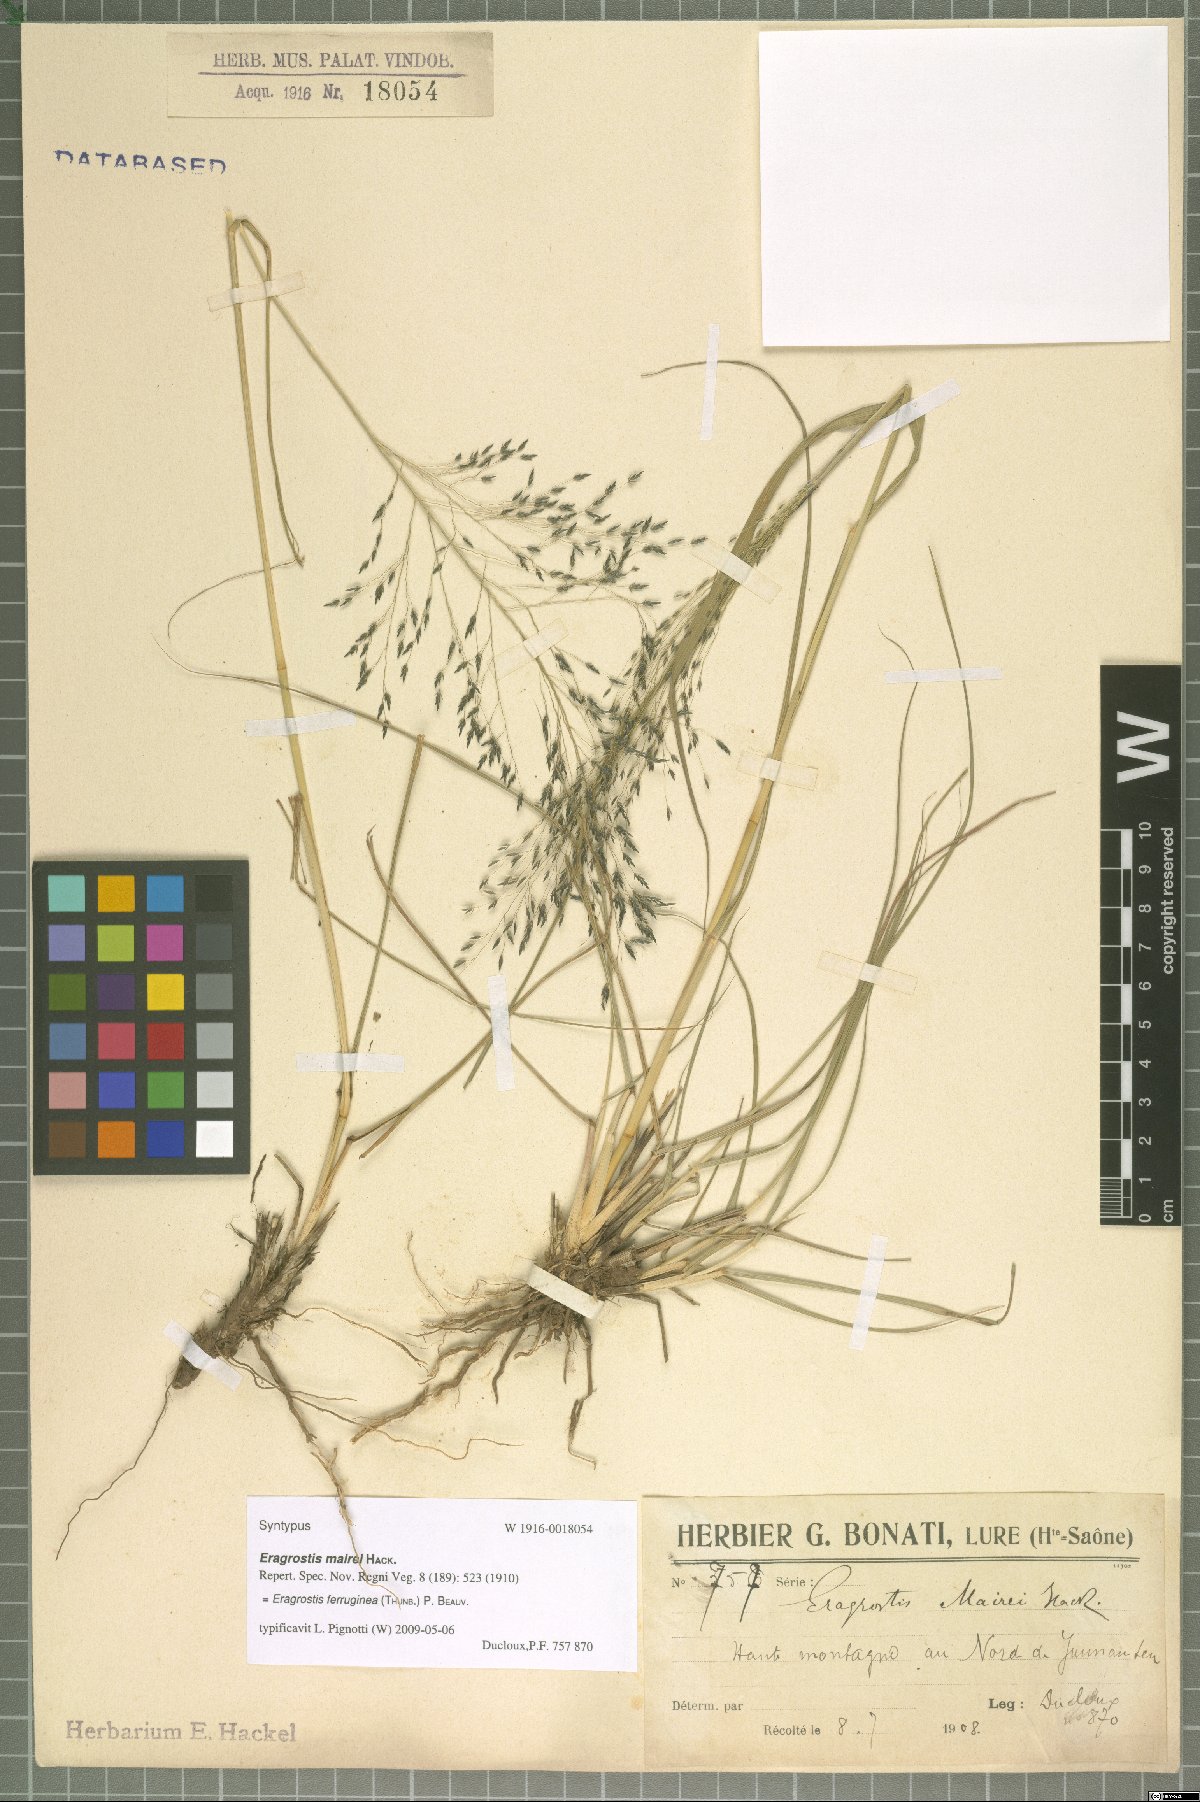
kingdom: Plantae
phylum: Tracheophyta
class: Liliopsida
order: Poales
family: Poaceae
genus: Eragrostis
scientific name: Eragrostis ferruginea
